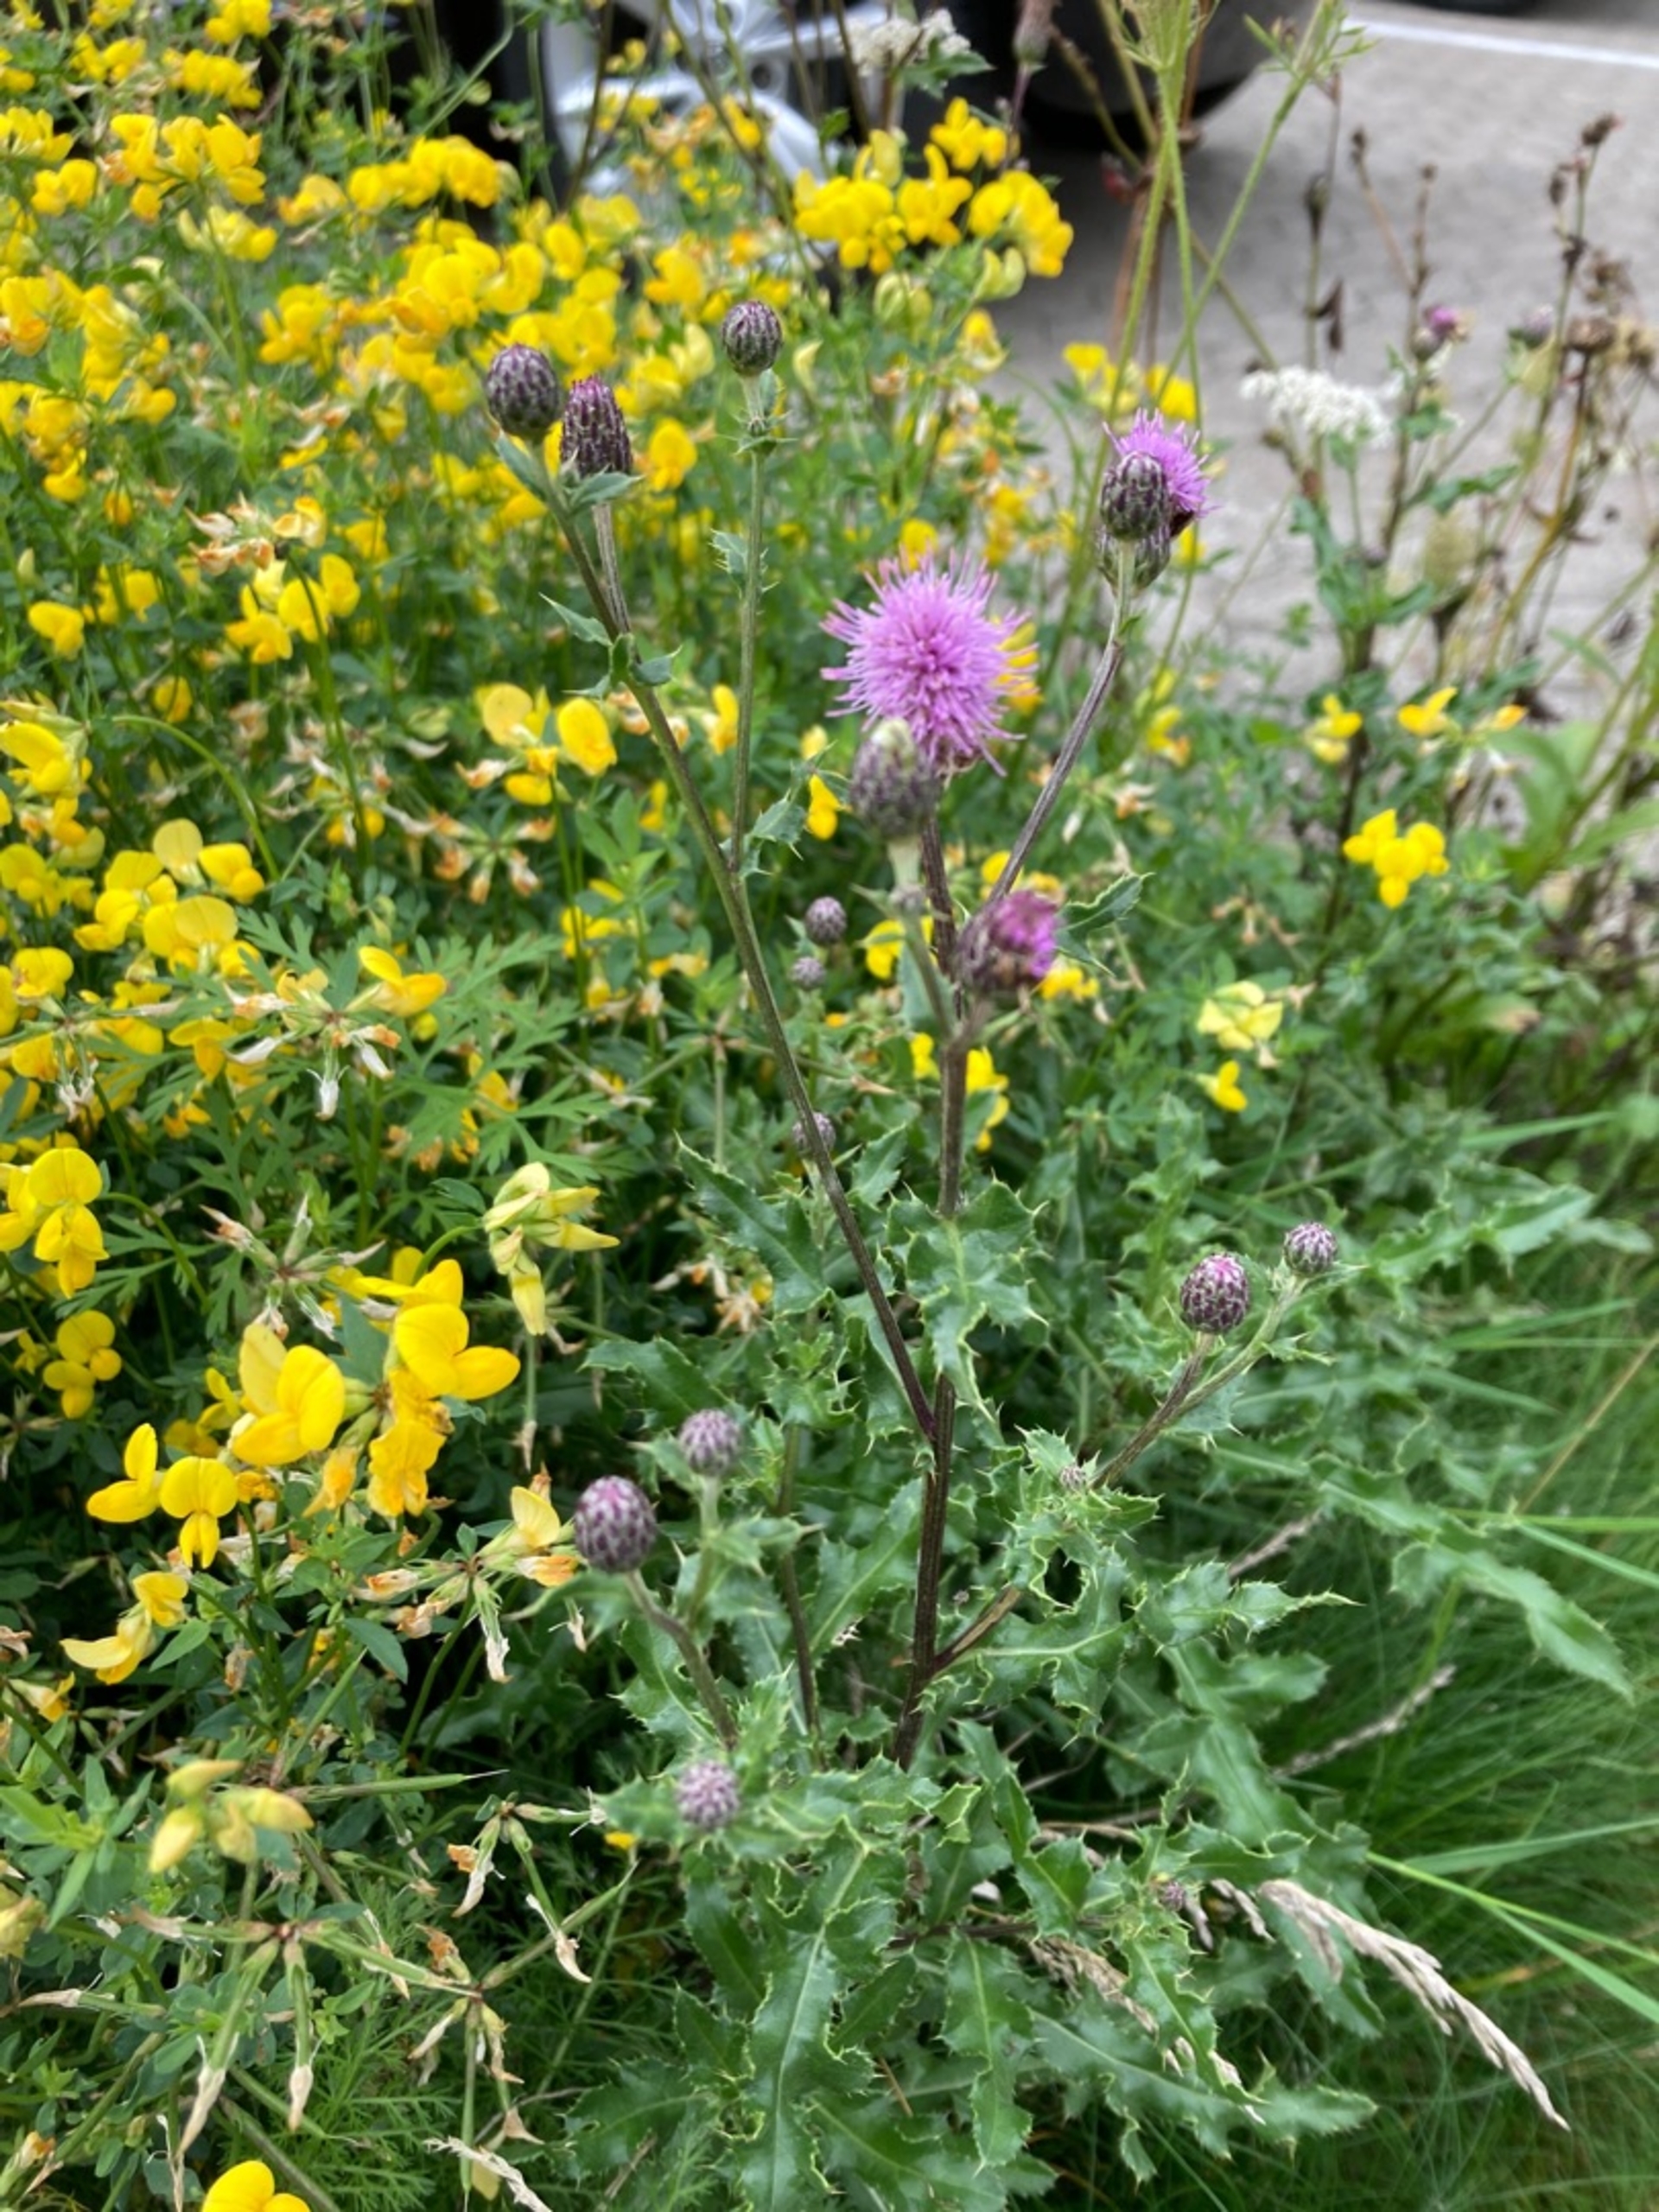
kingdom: Plantae
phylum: Tracheophyta
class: Magnoliopsida
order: Asterales
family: Asteraceae
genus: Cirsium
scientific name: Cirsium arvense
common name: Ager-tidsel
